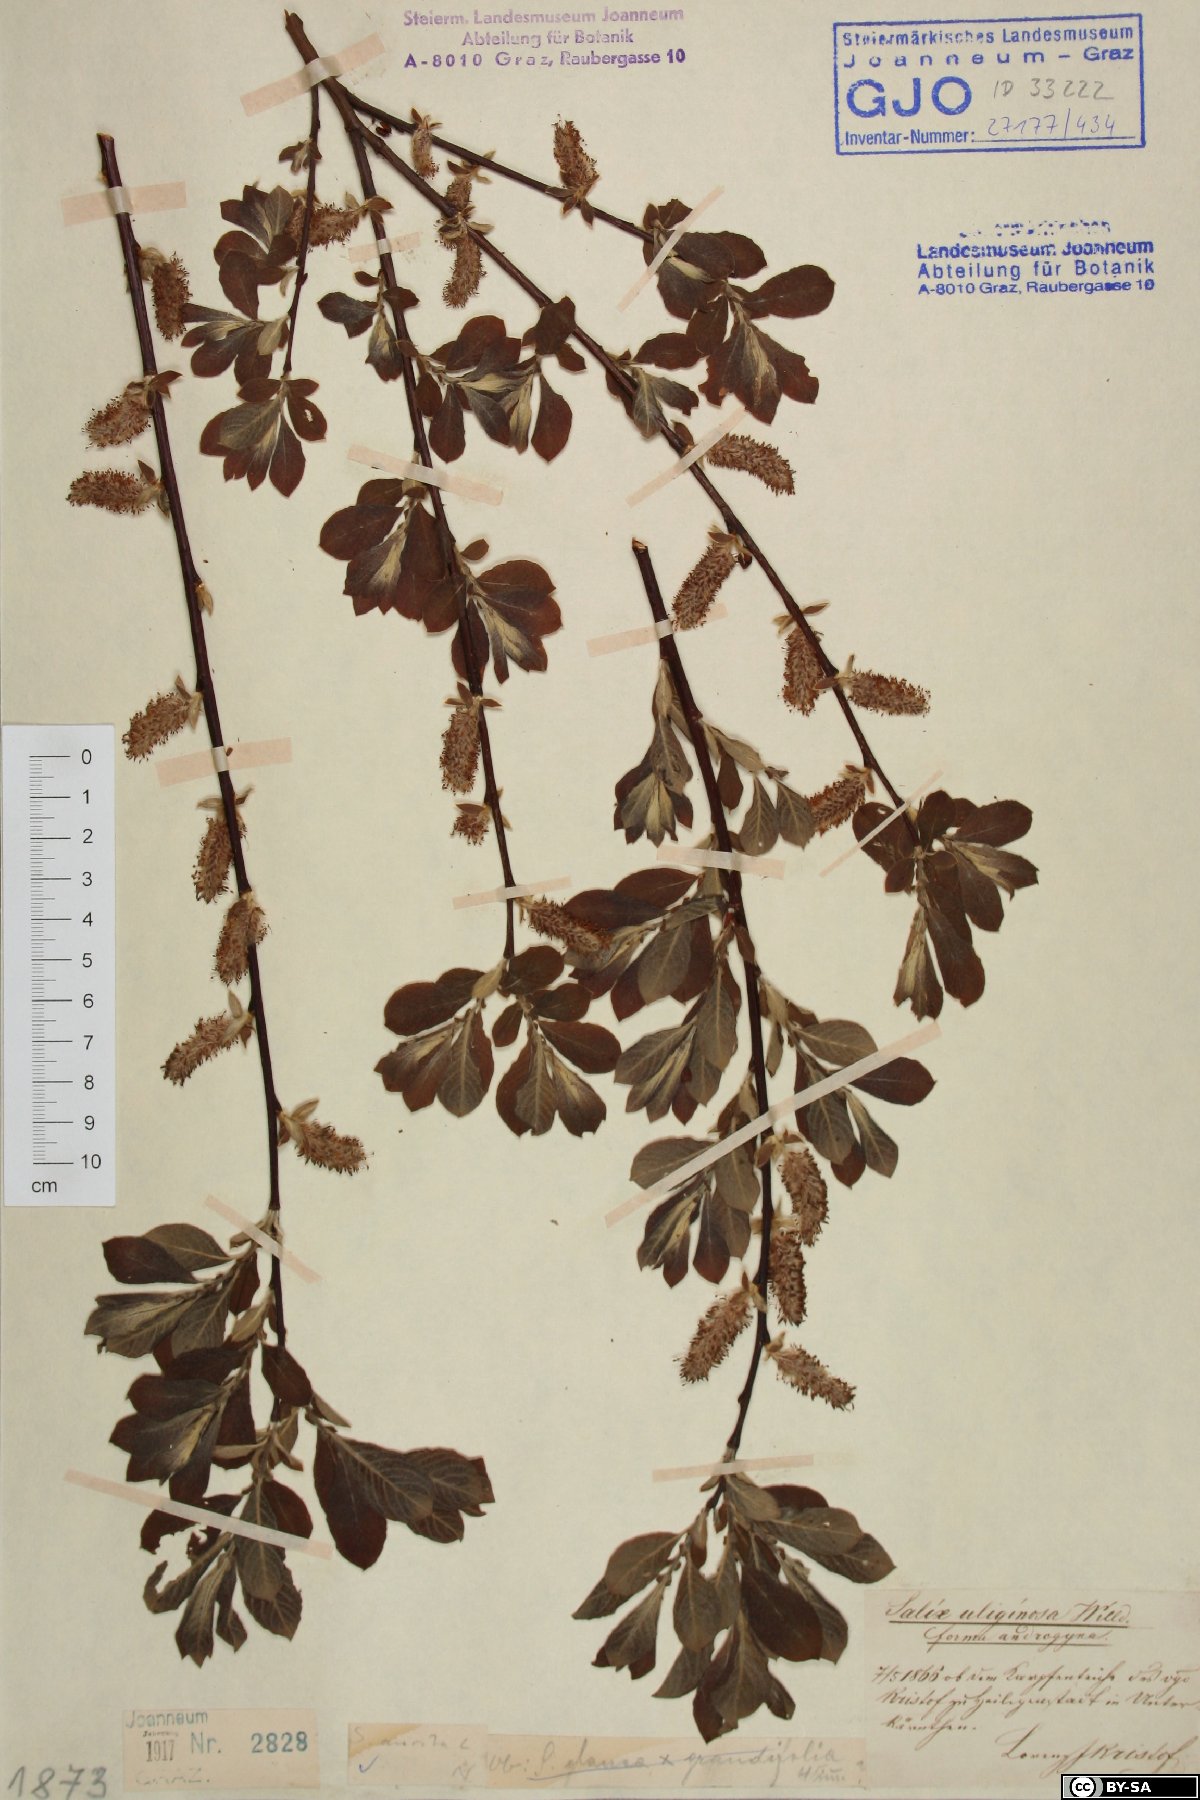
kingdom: Plantae
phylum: Tracheophyta
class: Magnoliopsida
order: Malpighiales
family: Salicaceae
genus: Salix
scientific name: Salix aurita
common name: Eared willow
